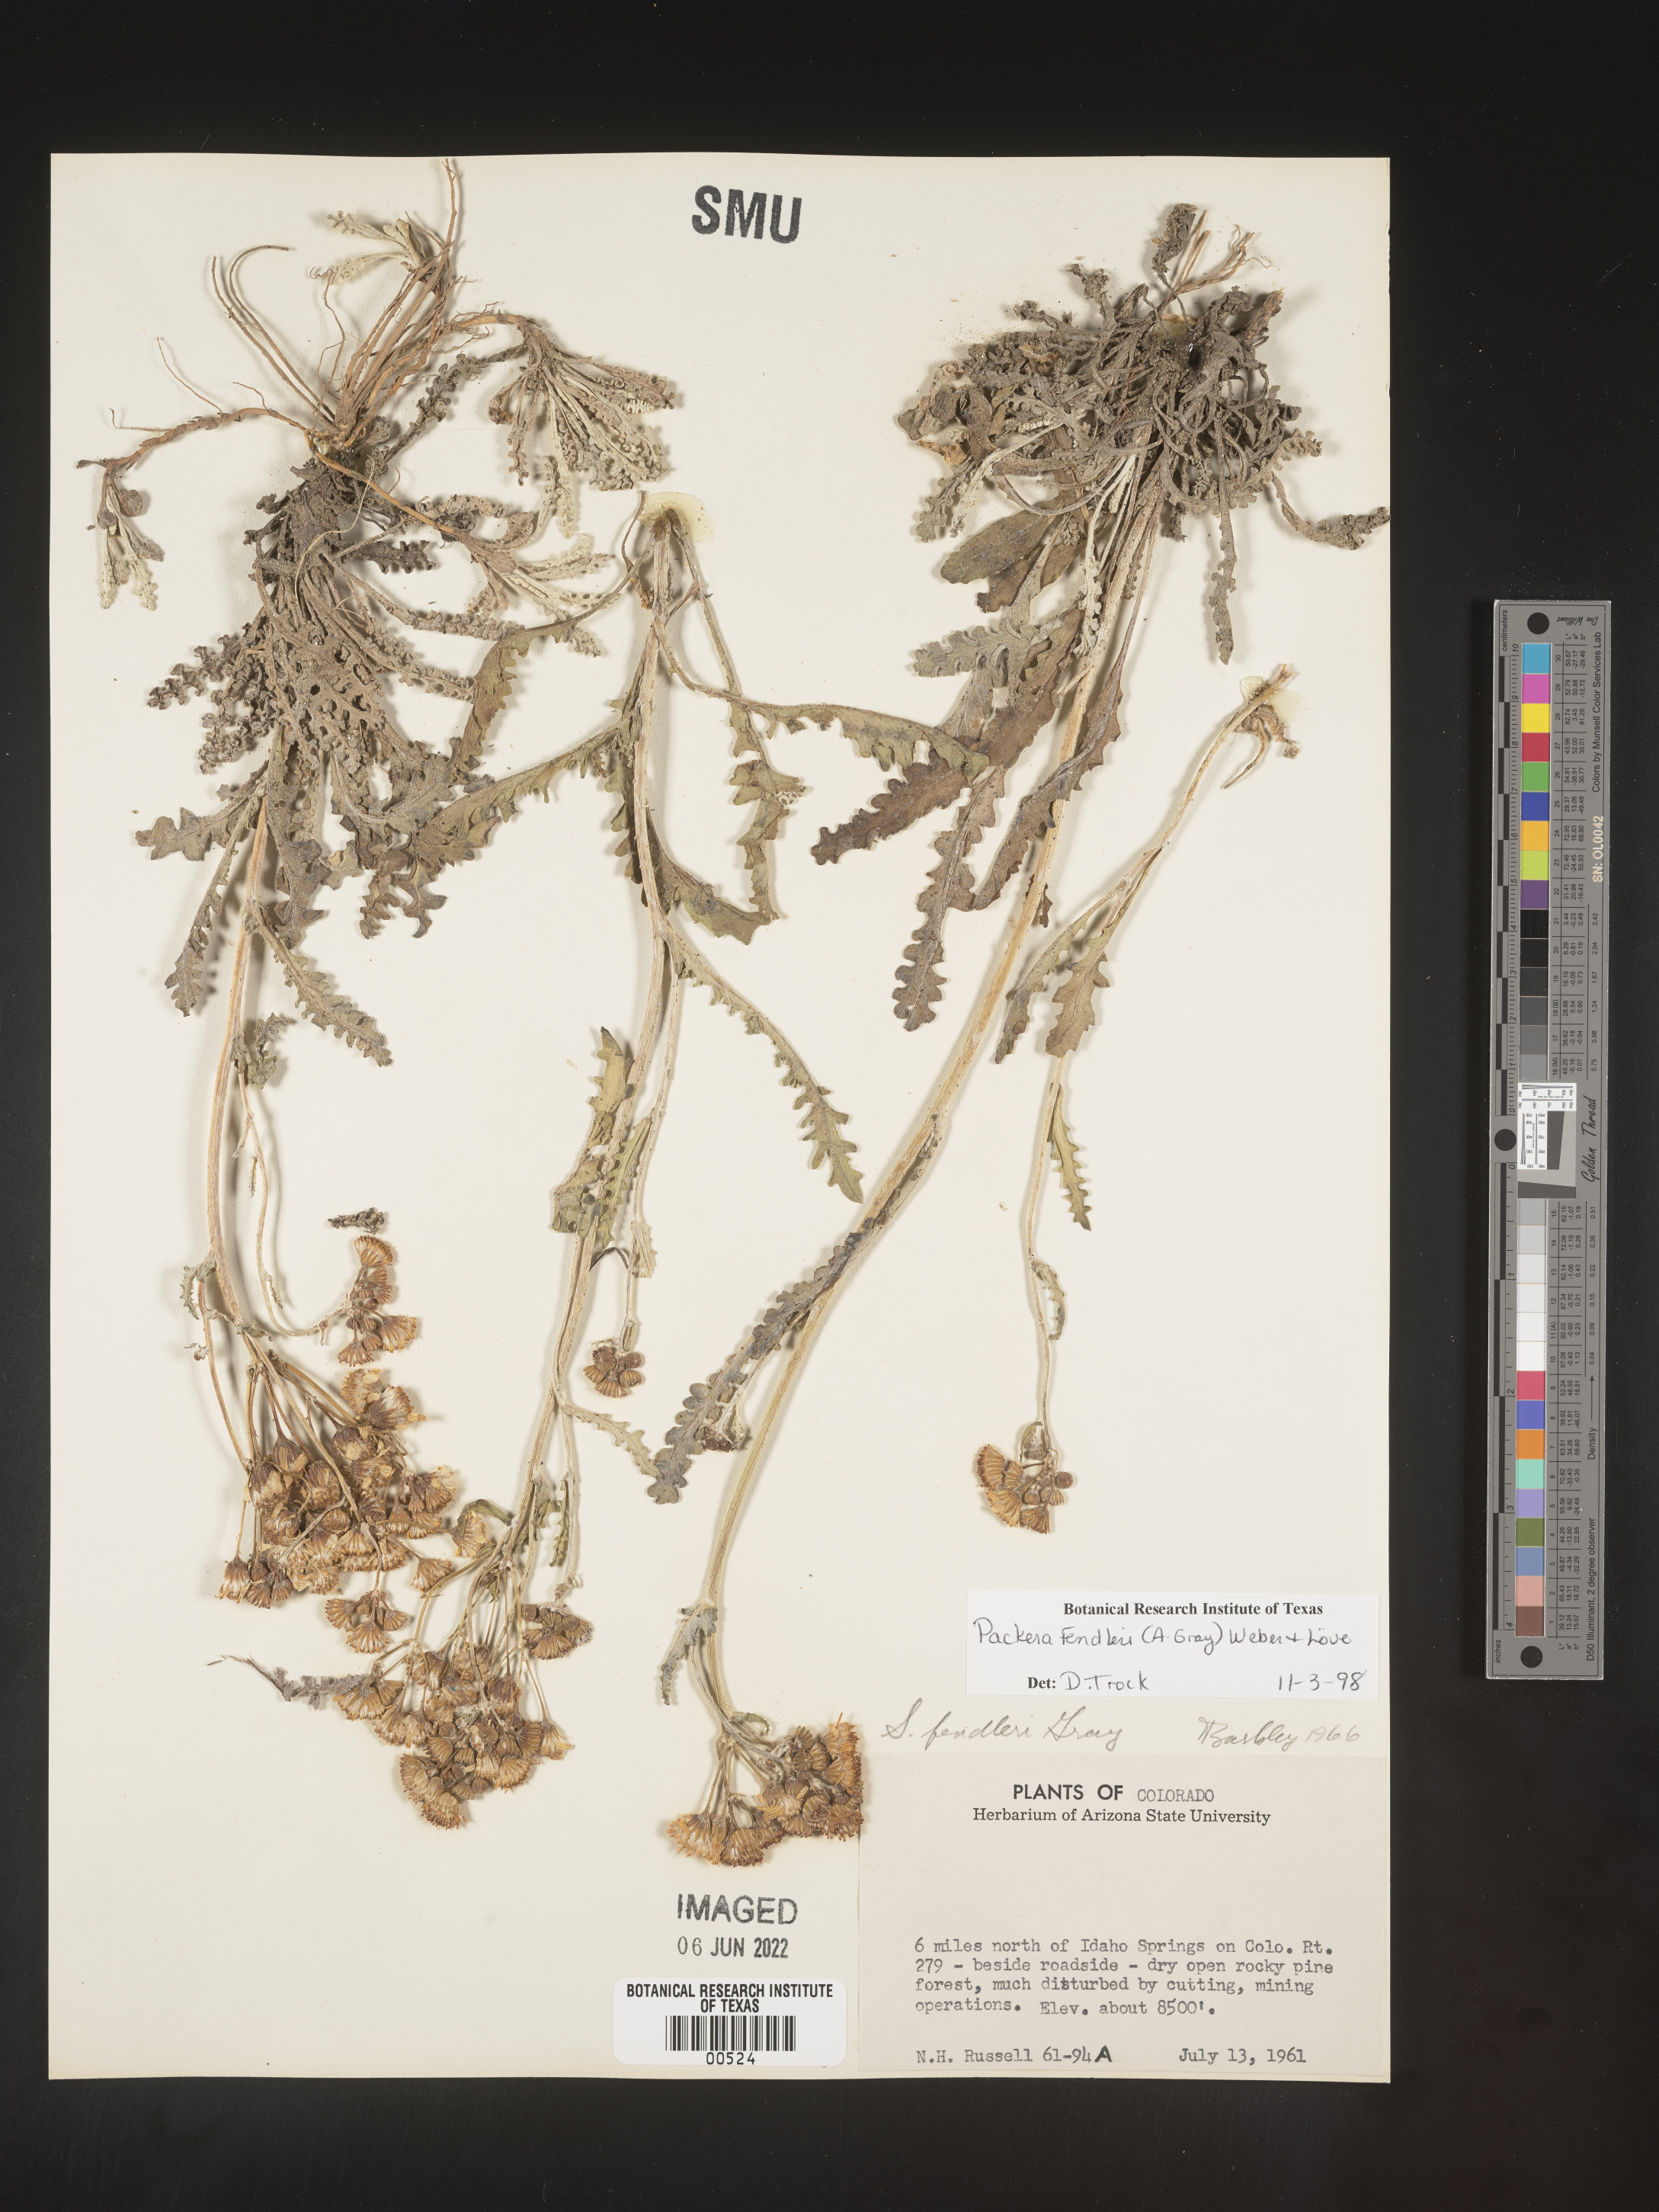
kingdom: Plantae
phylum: Tracheophyta
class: Magnoliopsida
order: Asterales
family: Asteraceae
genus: Packera
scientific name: Packera fendleri
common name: Notch-leaf butterweed
